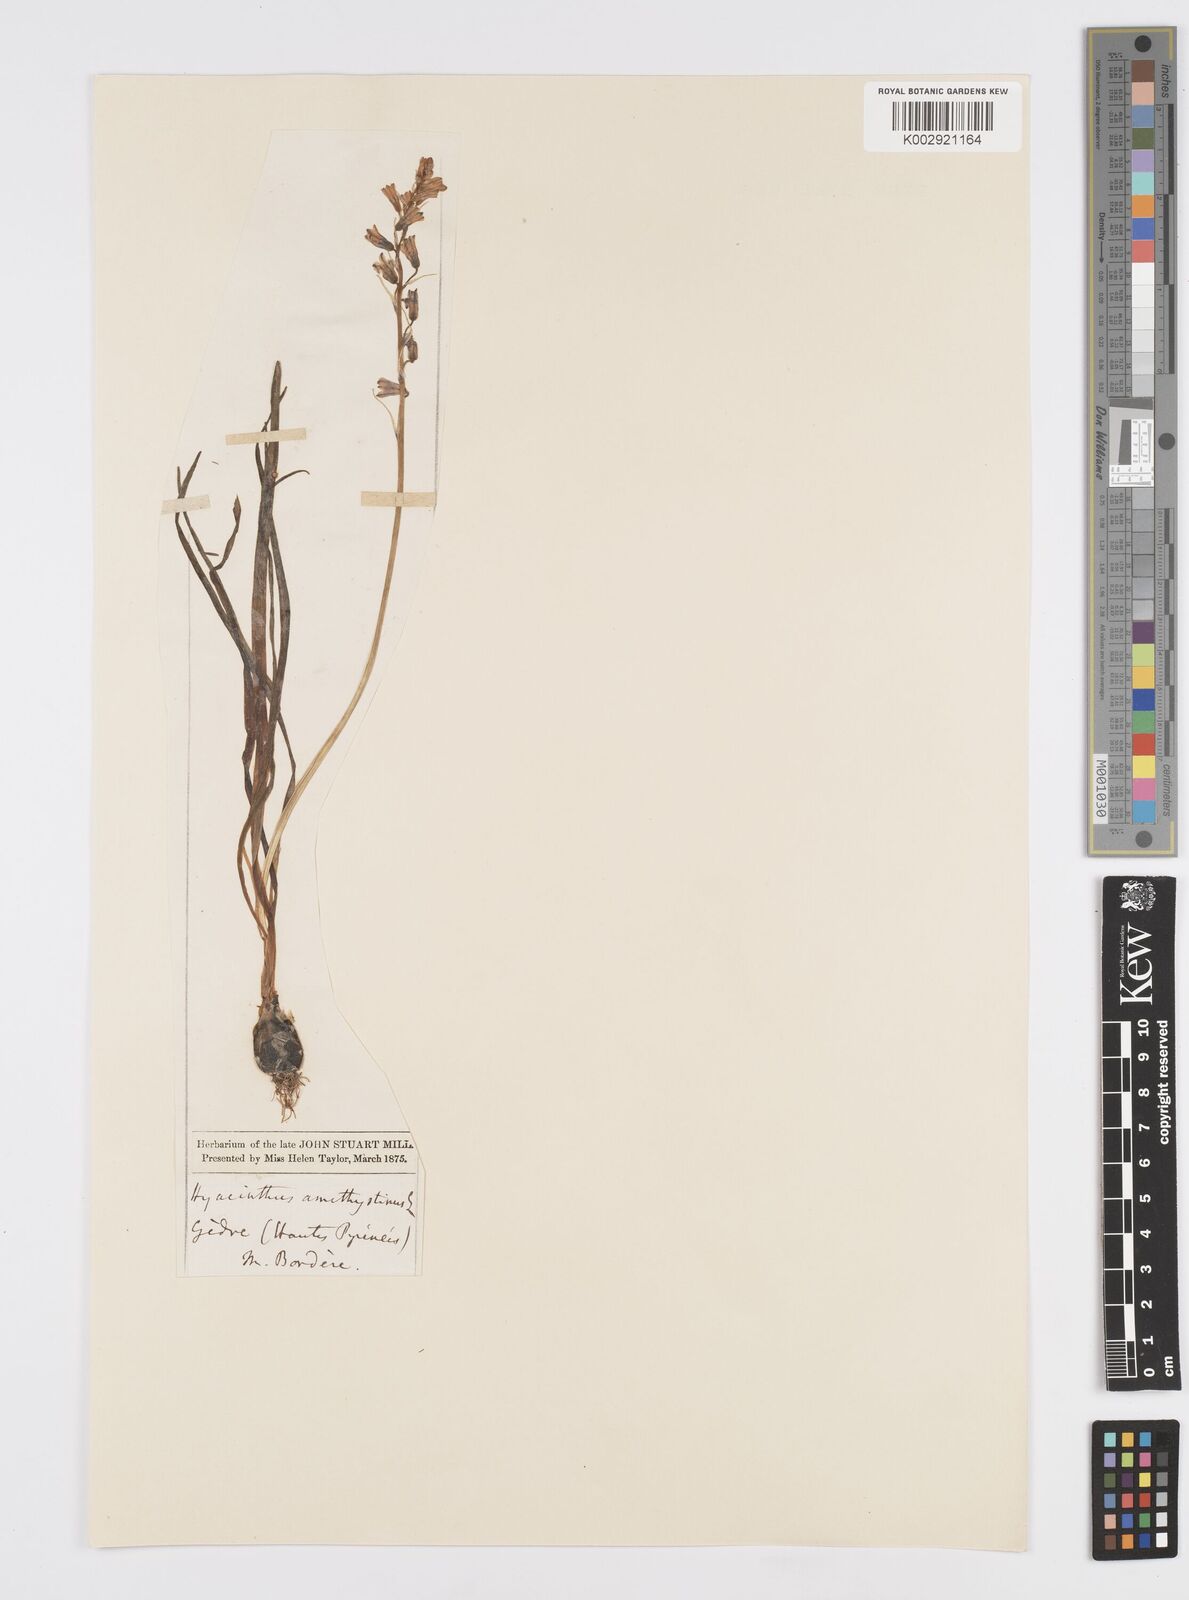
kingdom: Plantae
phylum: Tracheophyta
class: Liliopsida
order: Asparagales
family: Asparagaceae
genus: Brimeura
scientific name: Brimeura amethystina
